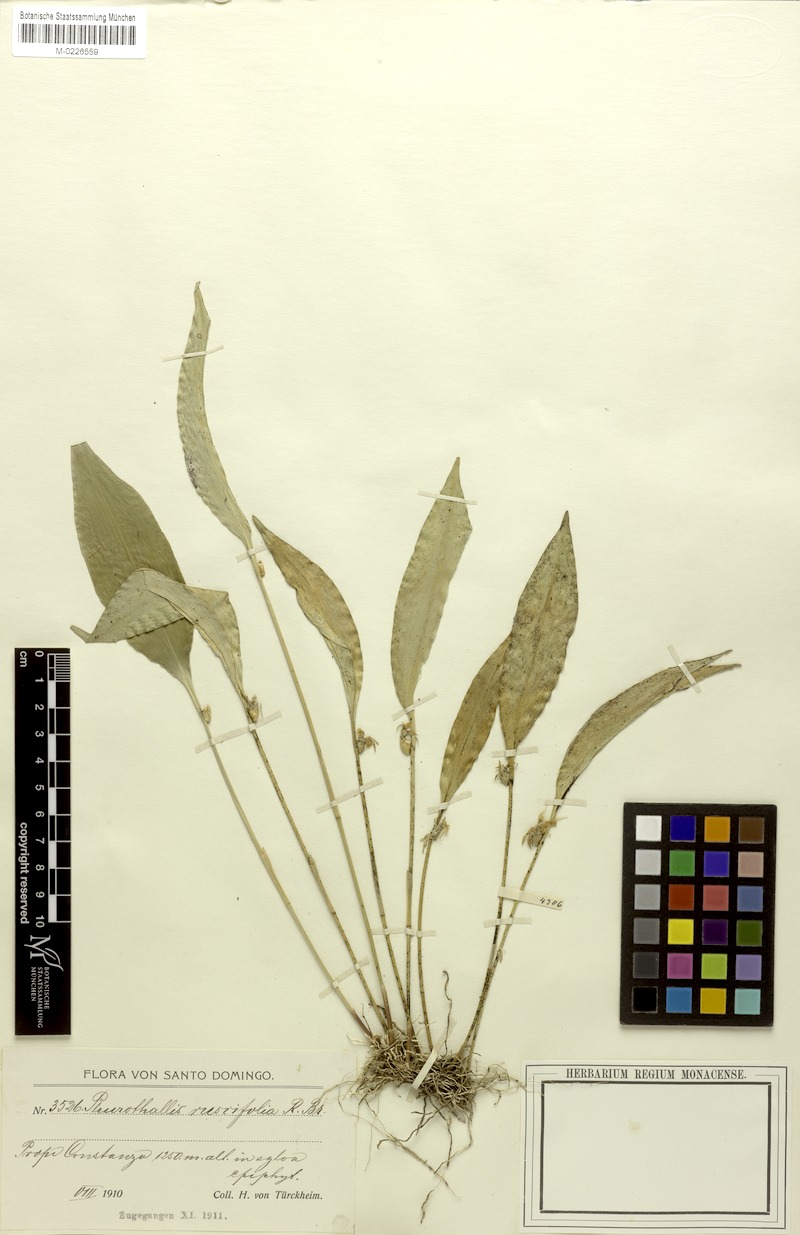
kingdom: Plantae
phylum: Tracheophyta
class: Liliopsida
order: Asparagales
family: Orchidaceae
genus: Pleurothallis
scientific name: Pleurothallis ruscifolia
